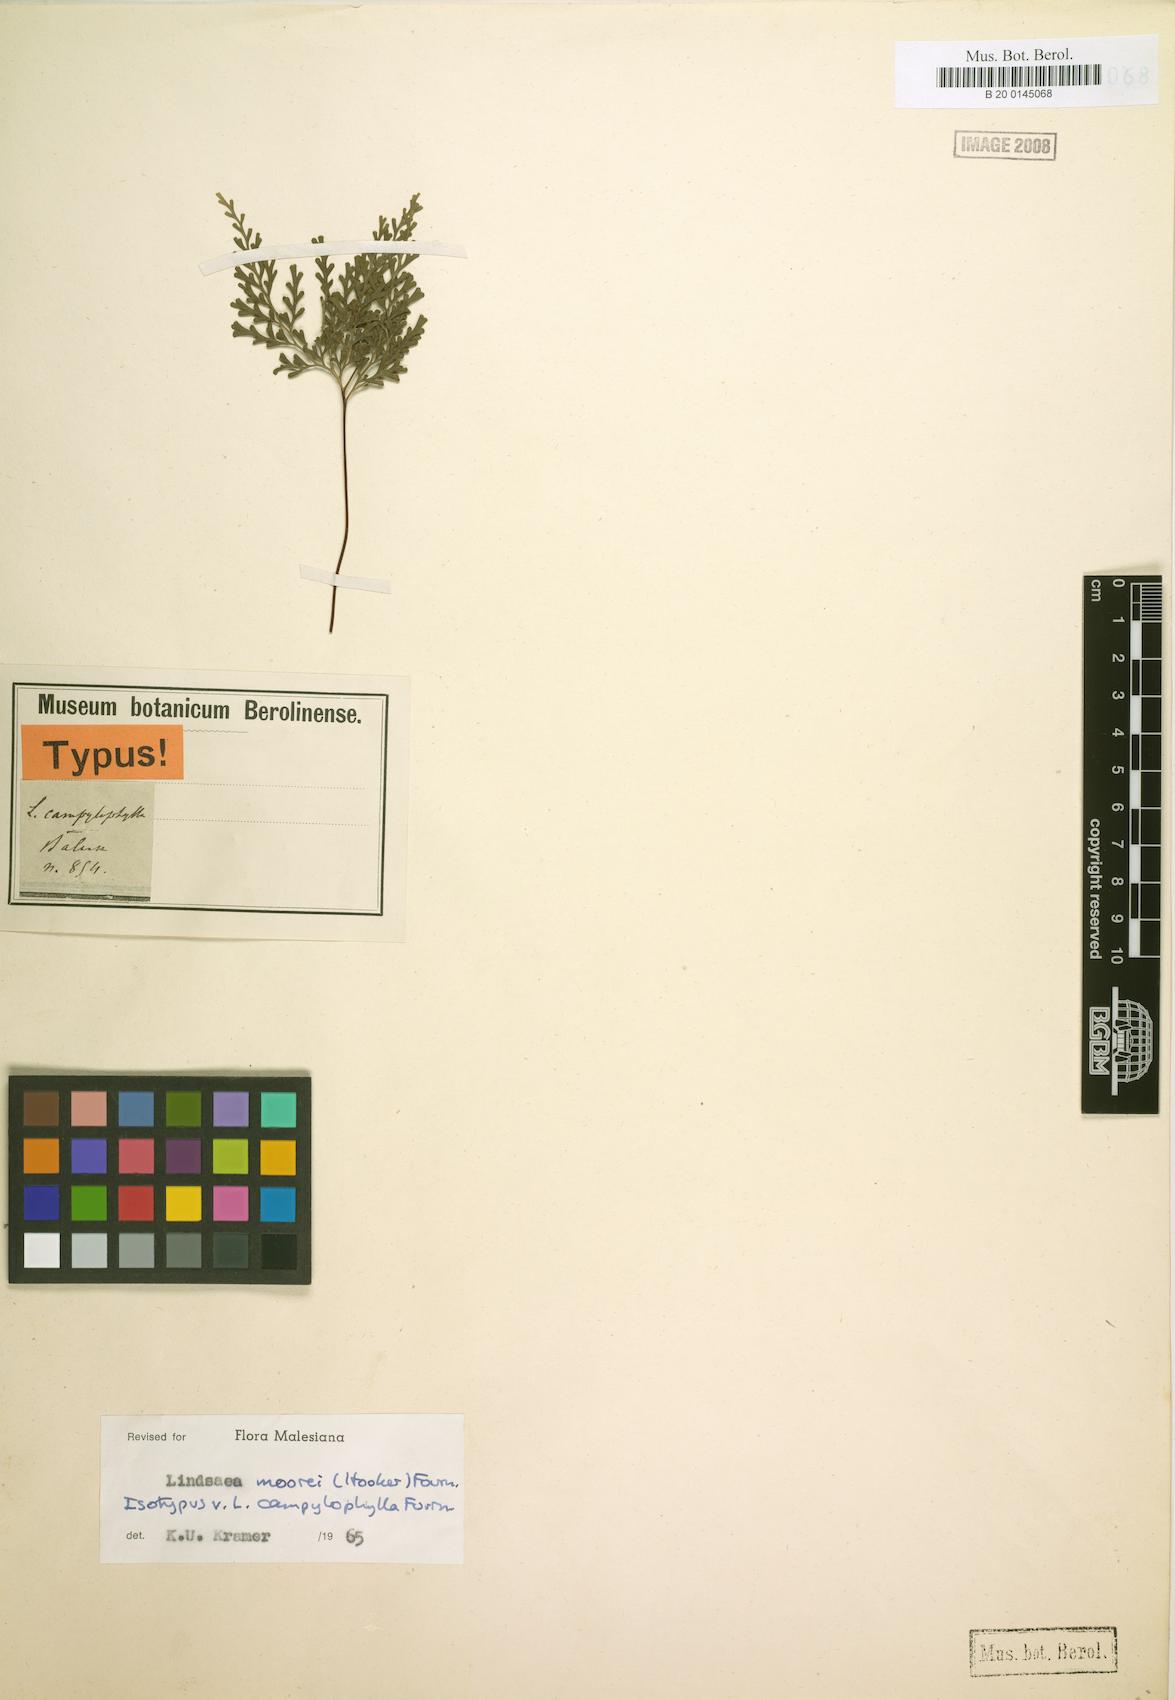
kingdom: Plantae
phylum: Tracheophyta
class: Polypodiopsida
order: Polypodiales
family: Lindsaeaceae
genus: Tapeinidium
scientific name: Tapeinidium moorei
